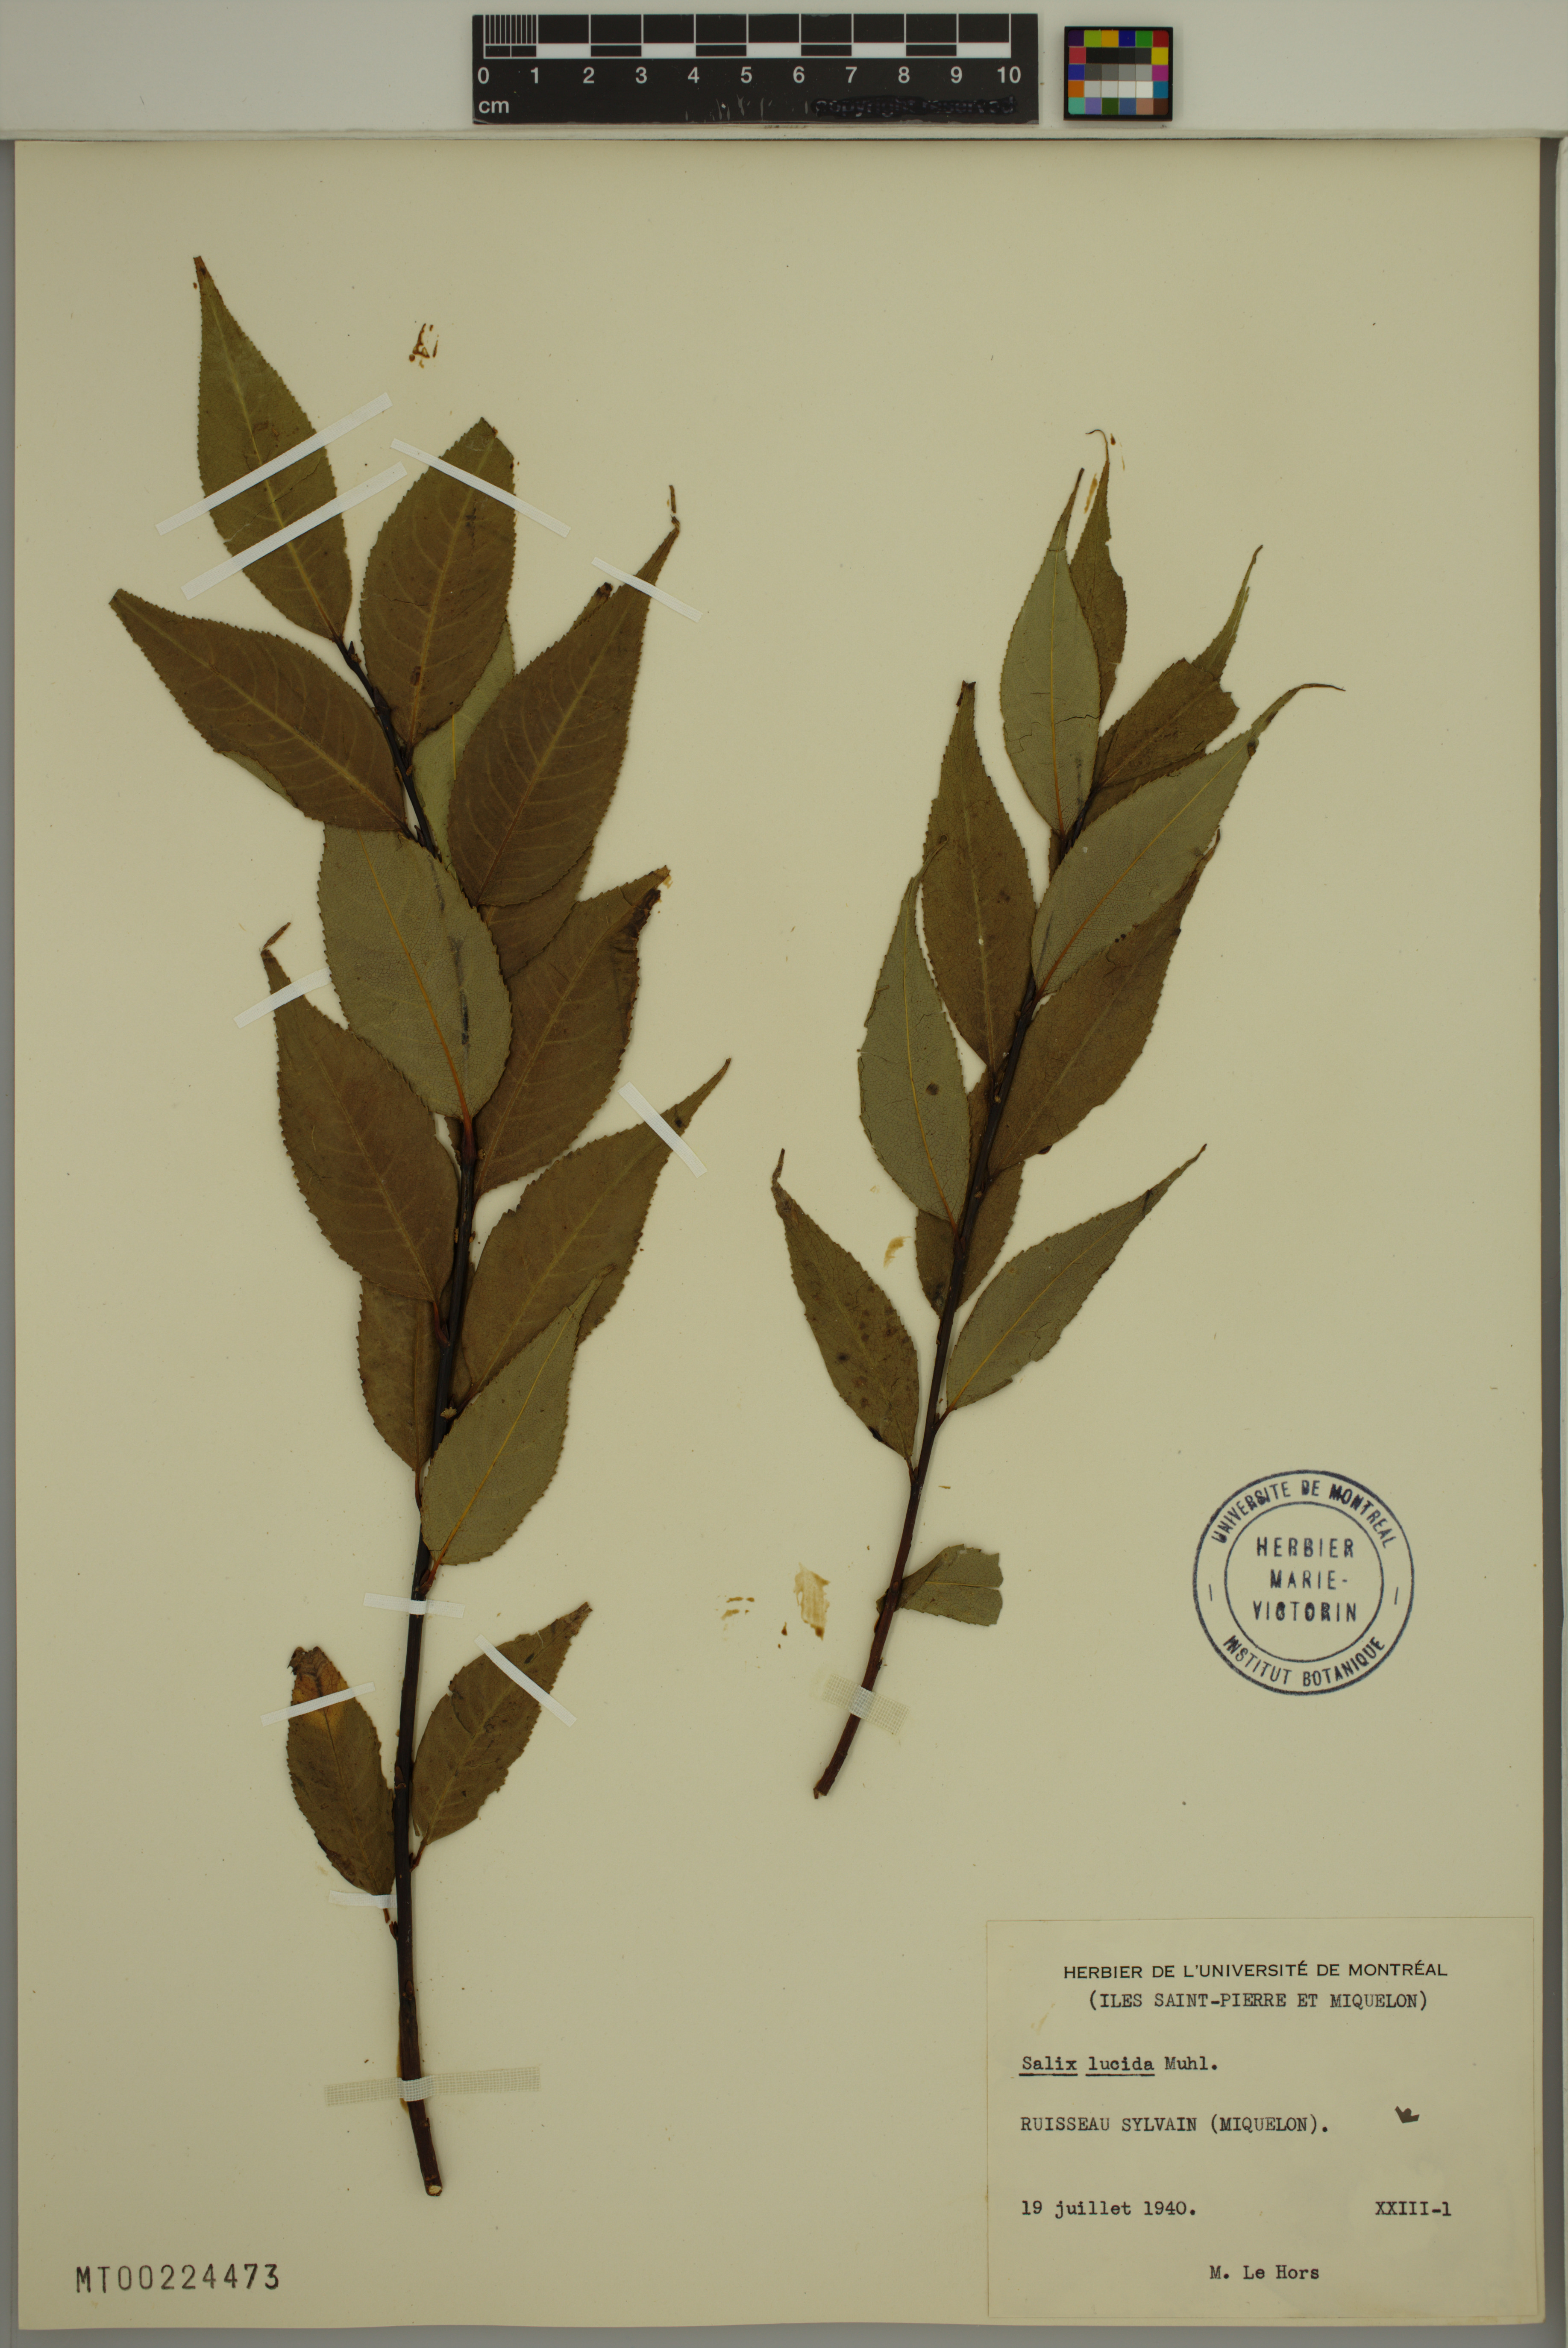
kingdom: Plantae
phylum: Tracheophyta
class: Magnoliopsida
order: Malpighiales
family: Salicaceae
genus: Salix
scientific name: Salix lucida
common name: Shining willow
